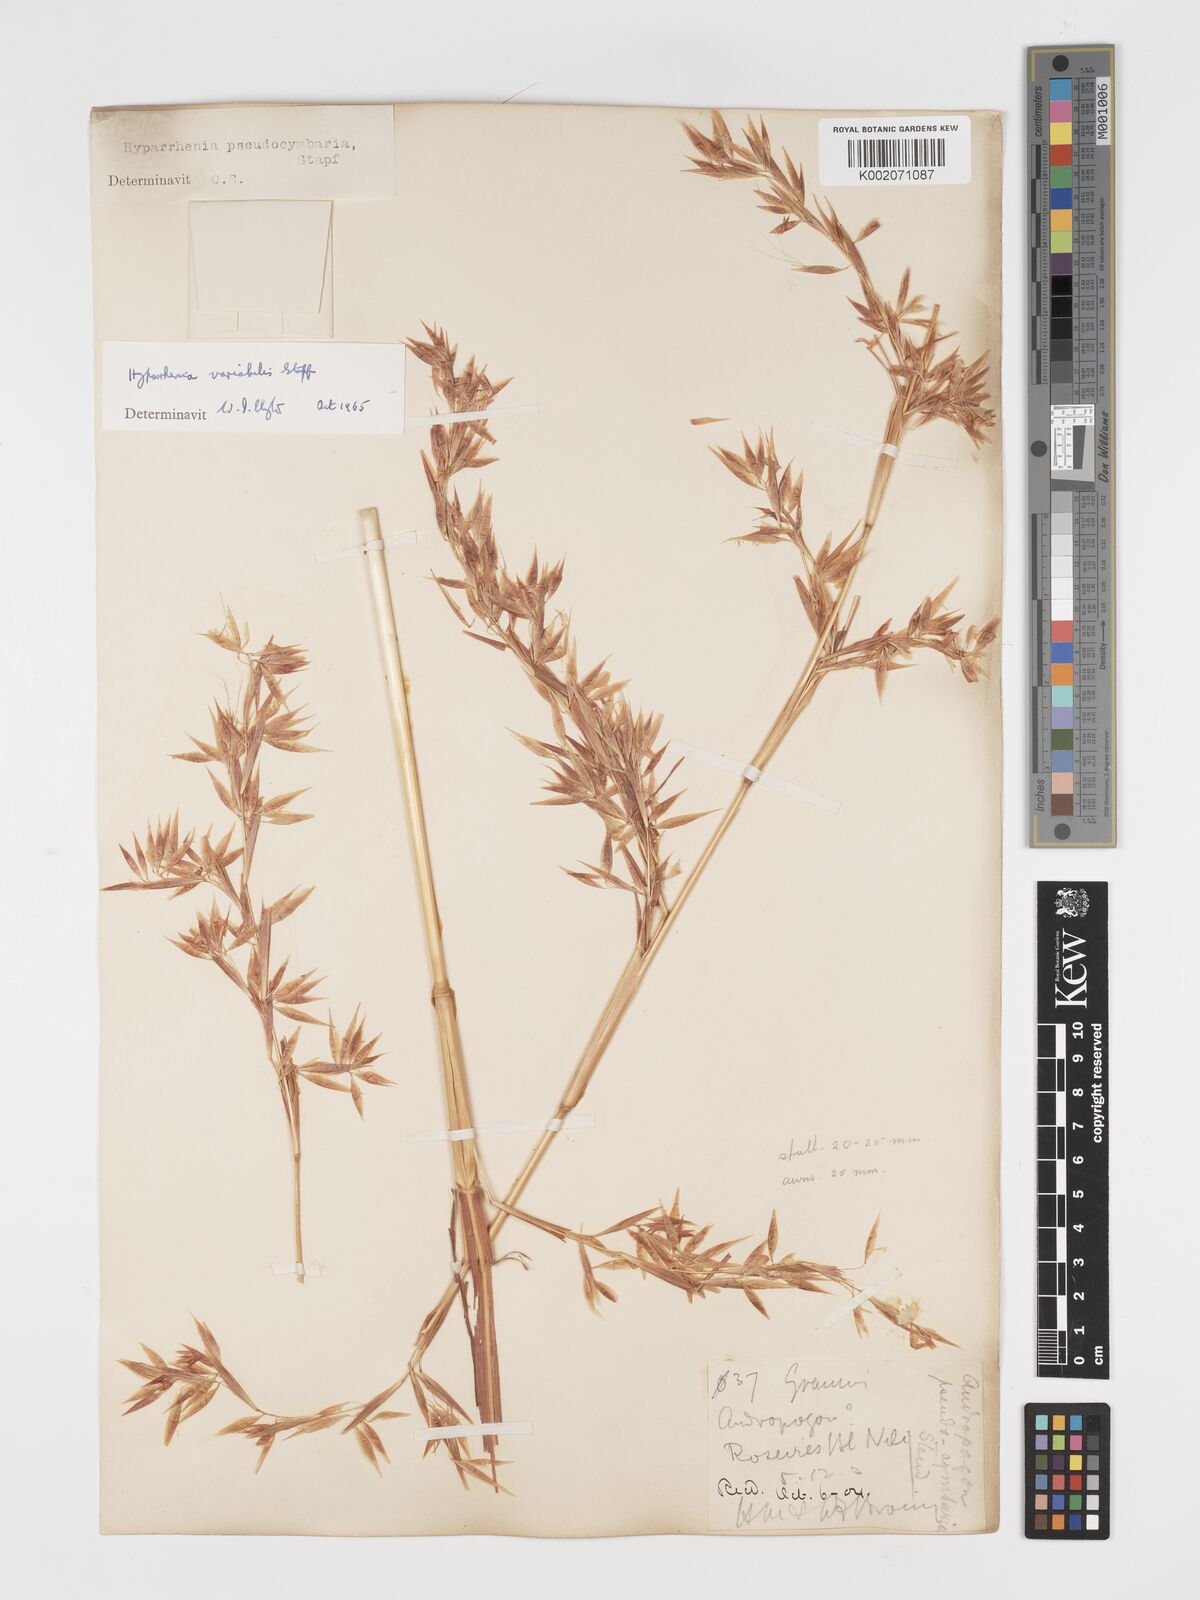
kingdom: Plantae
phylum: Tracheophyta
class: Liliopsida
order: Poales
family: Poaceae
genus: Hyparrhenia
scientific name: Hyparrhenia variabilis
